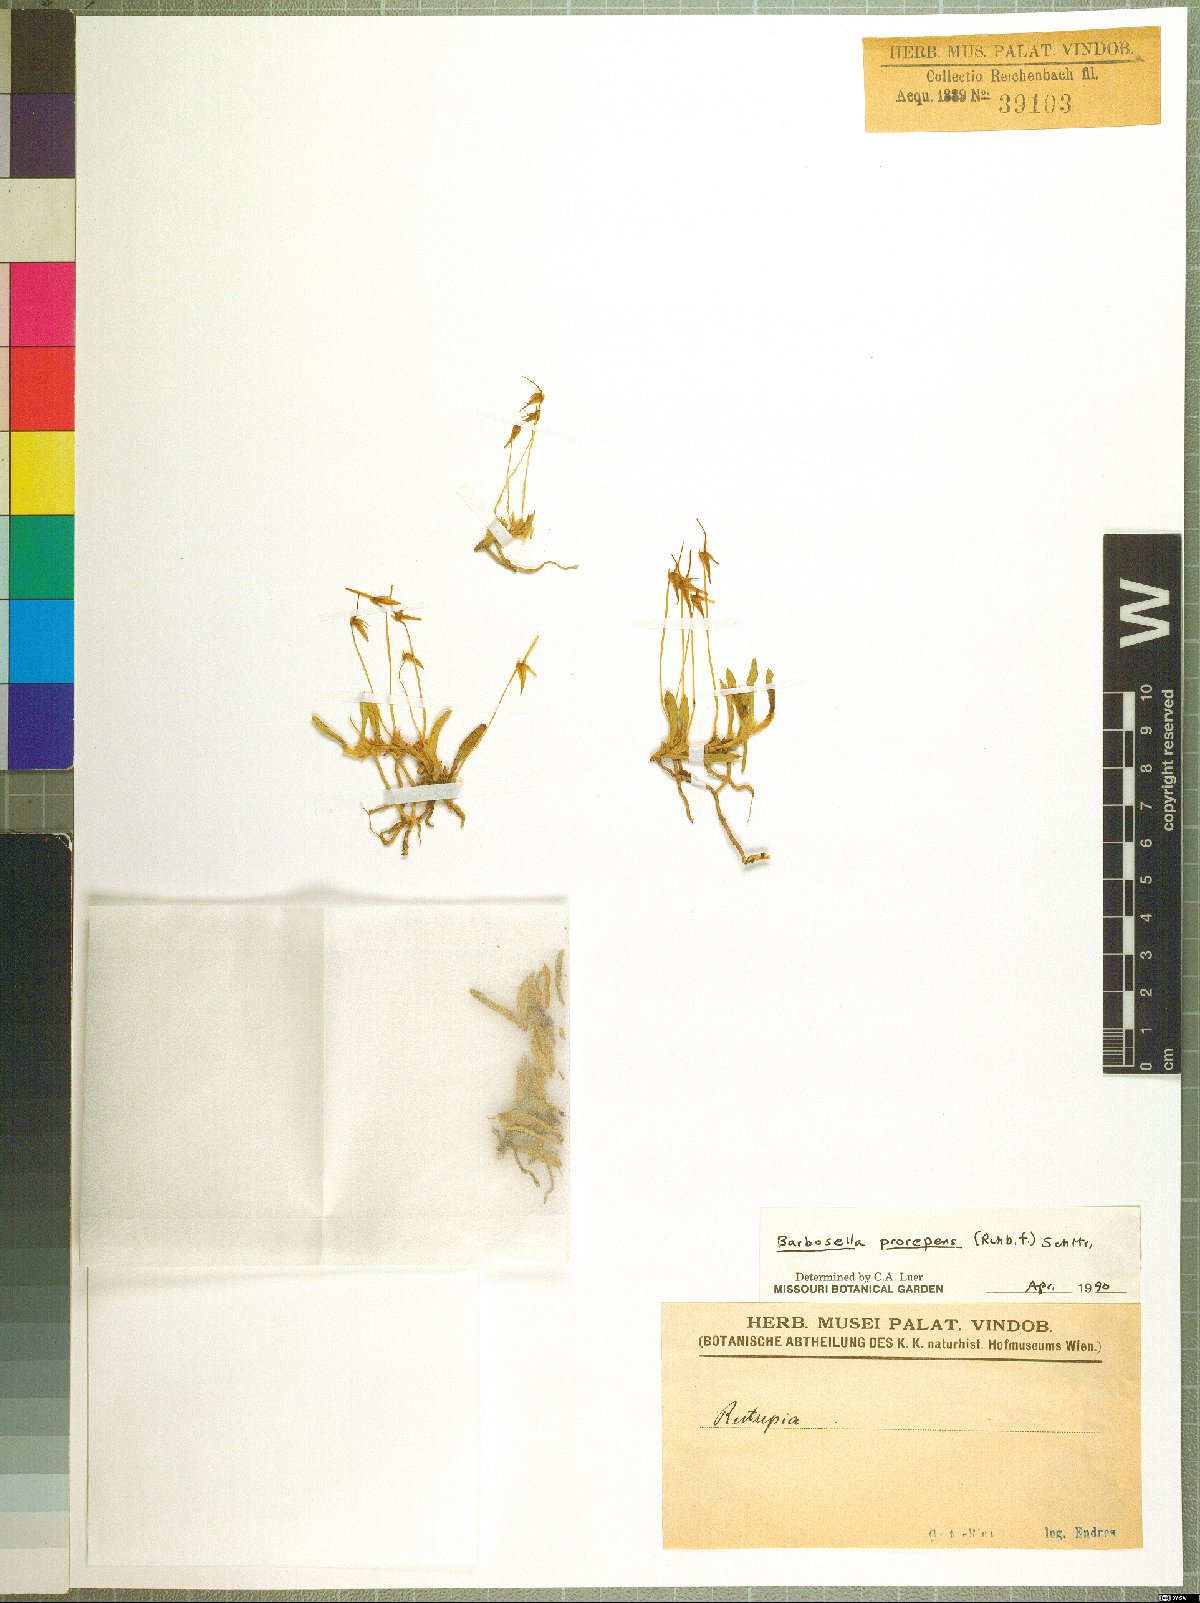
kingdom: Plantae
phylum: Tracheophyta
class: Liliopsida
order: Asparagales
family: Orchidaceae
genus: Barbosella
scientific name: Barbosella prorepens
